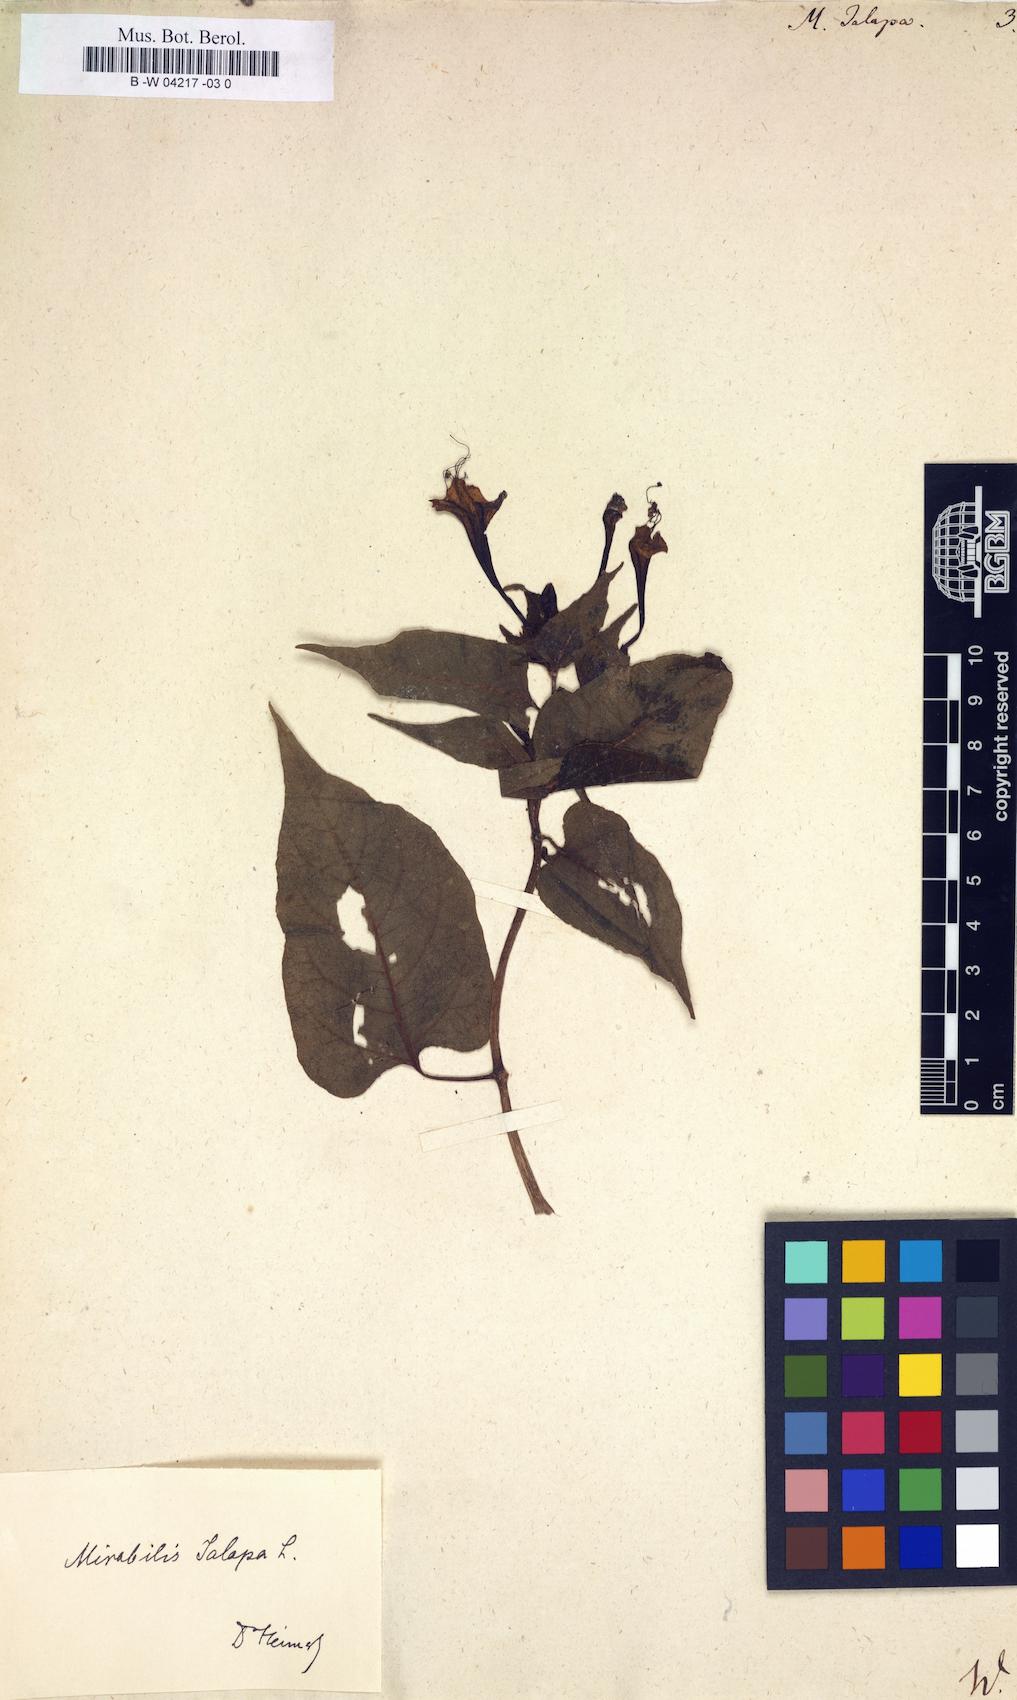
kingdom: Plantae
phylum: Tracheophyta
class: Magnoliopsida
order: Caryophyllales
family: Nyctaginaceae
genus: Mirabilis
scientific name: Mirabilis jalapa
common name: Marvel-of-peru
